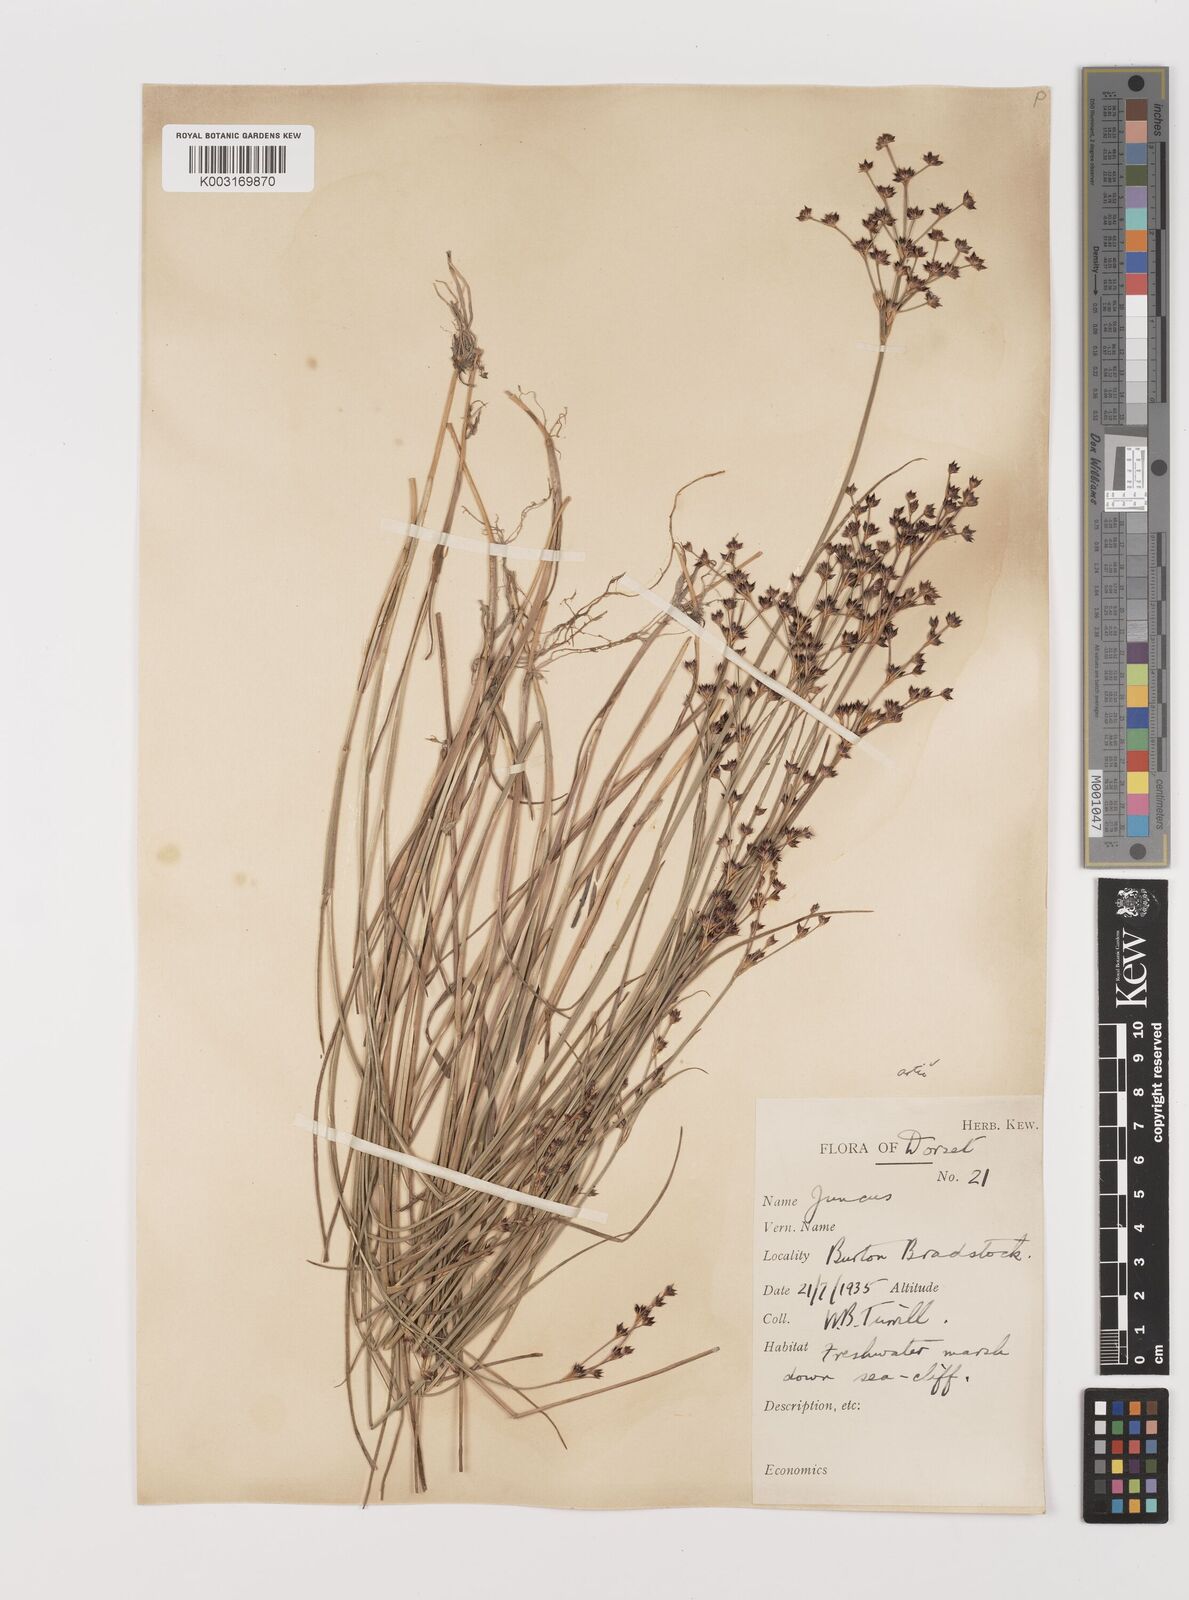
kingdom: Plantae
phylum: Tracheophyta
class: Liliopsida
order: Poales
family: Juncaceae
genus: Juncus
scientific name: Juncus articulatus
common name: Jointed rush
